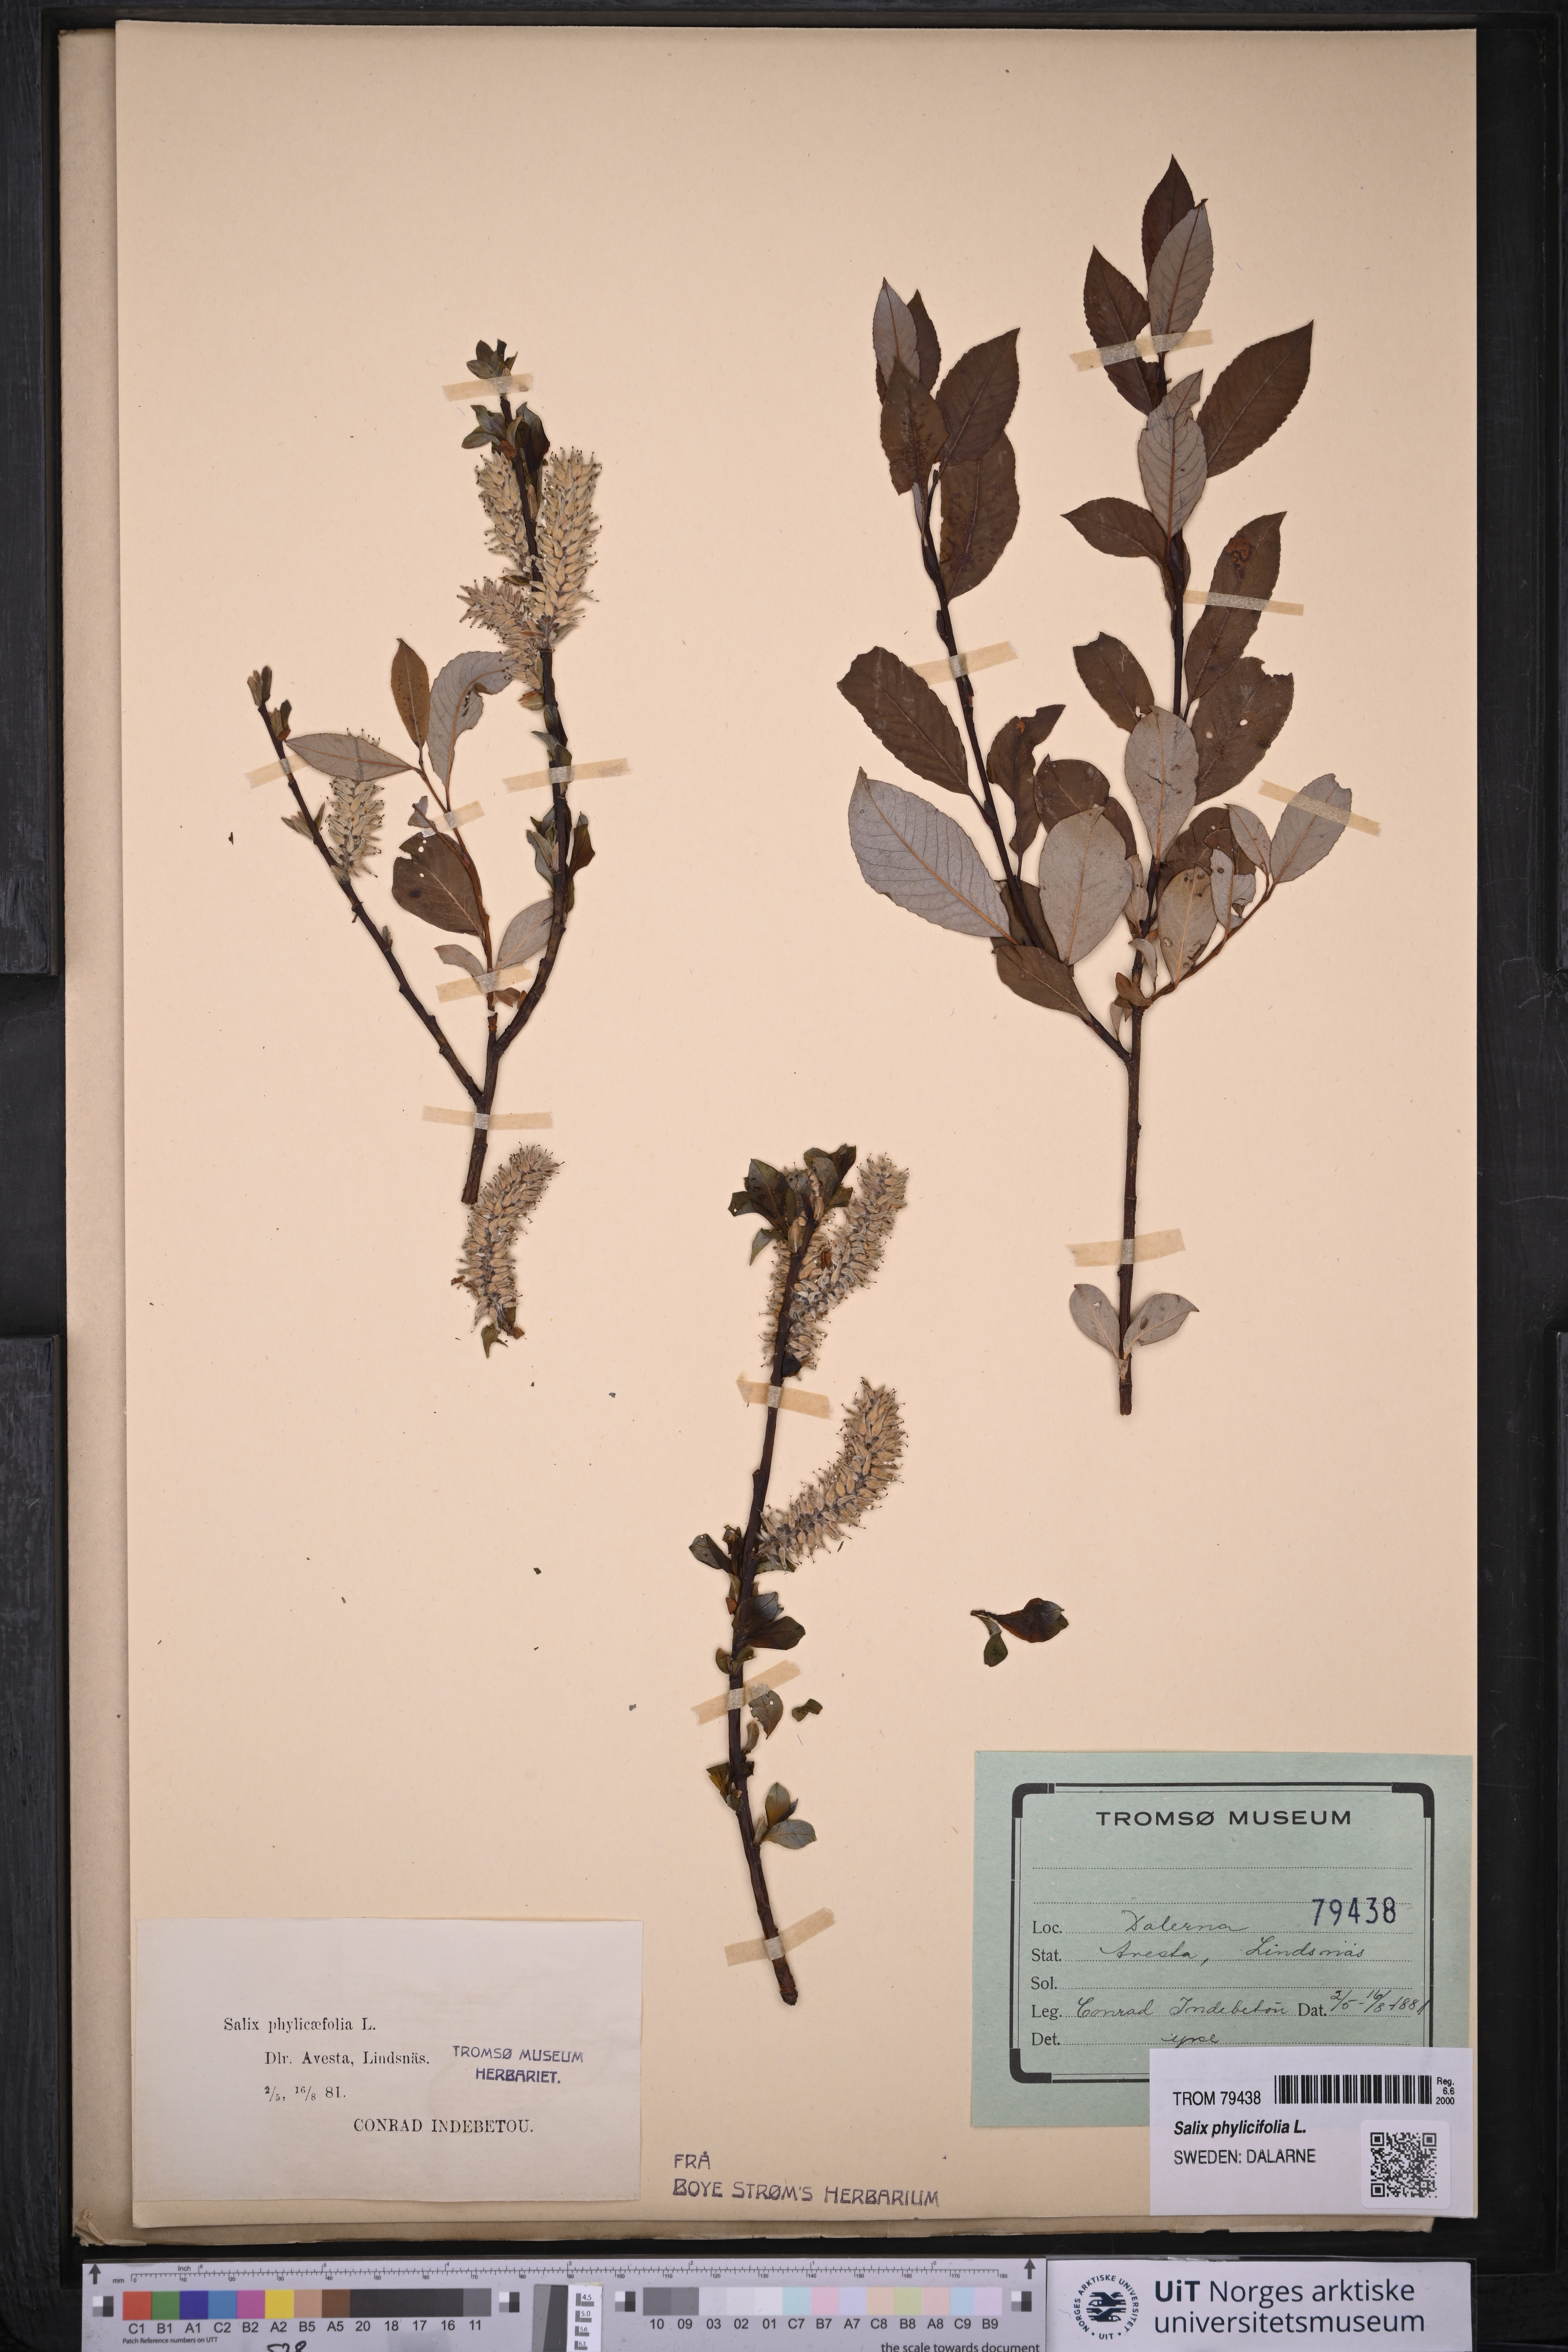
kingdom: Plantae
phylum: Tracheophyta
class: Magnoliopsida
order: Malpighiales
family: Salicaceae
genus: Salix
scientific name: Salix phylicifolia
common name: Tea-leaved willow
